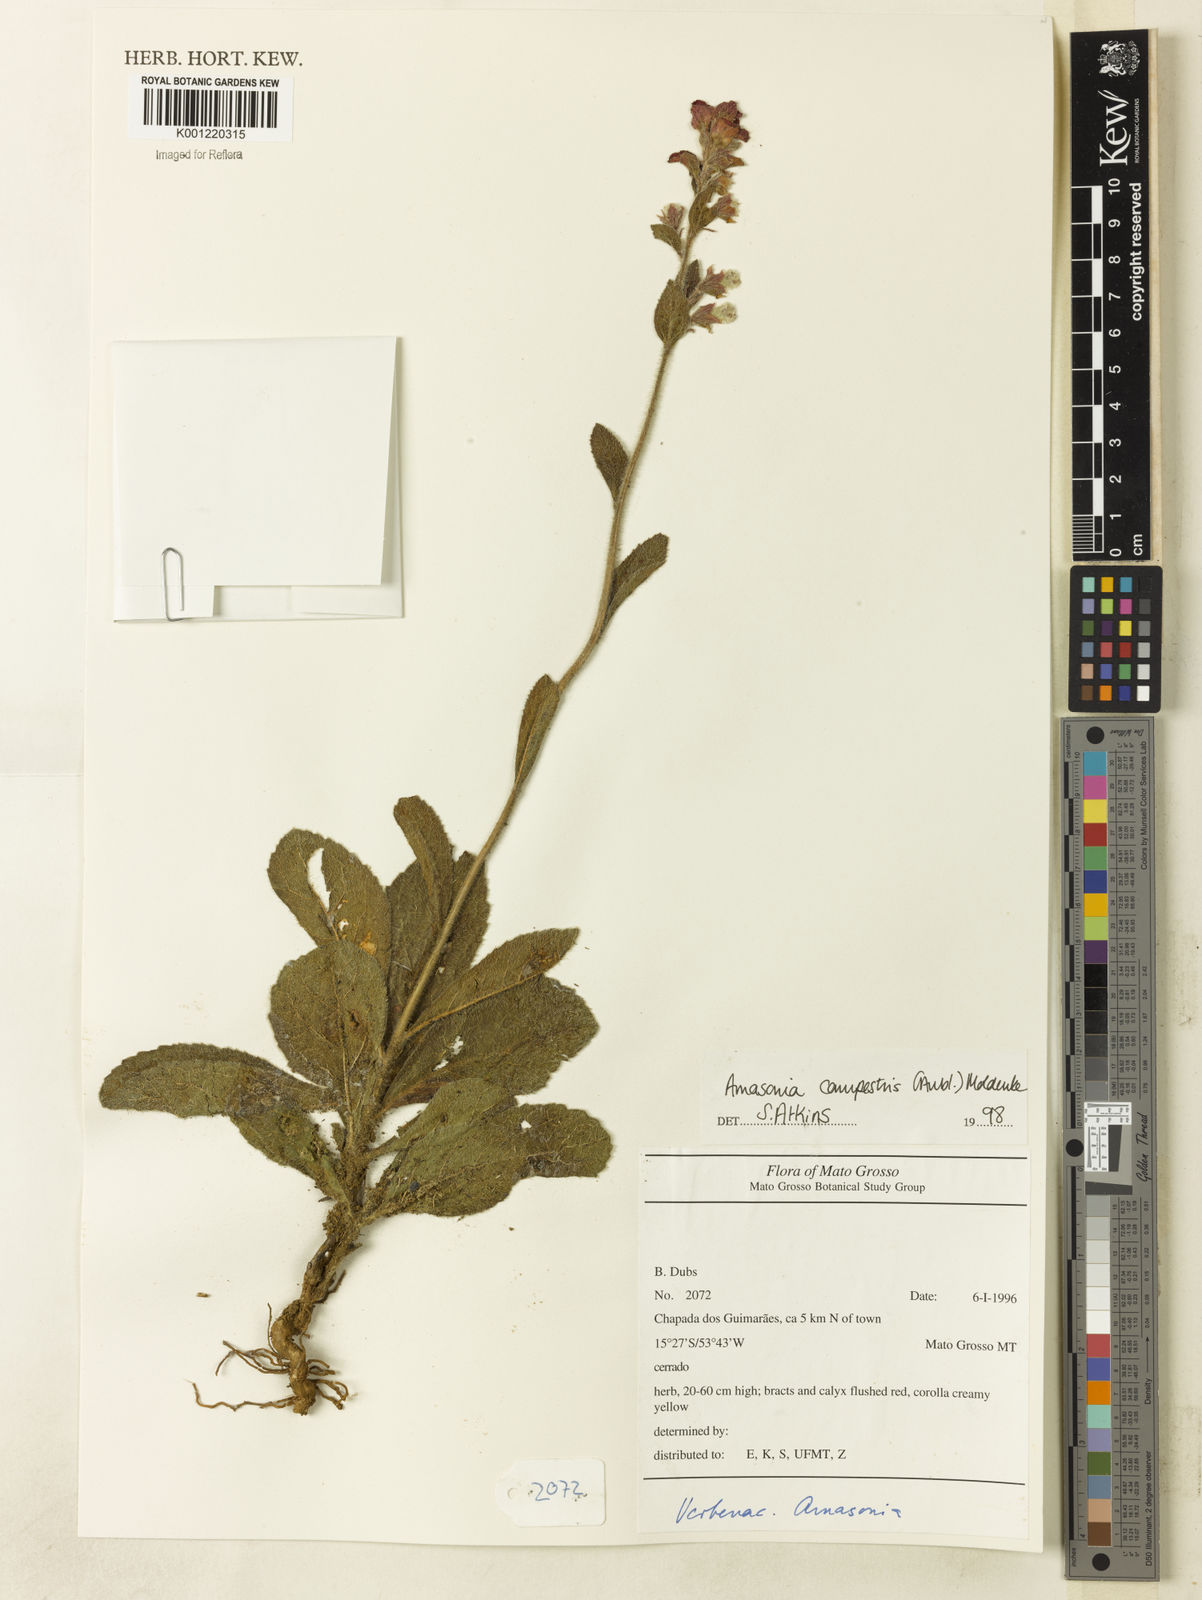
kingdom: Plantae
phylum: Tracheophyta
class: Magnoliopsida
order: Lamiales
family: Lamiaceae
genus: Amasonia
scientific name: Amasonia campestris
